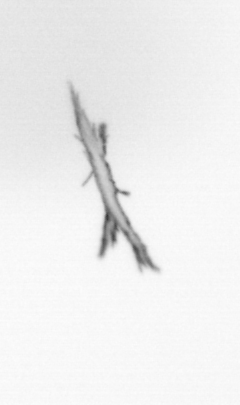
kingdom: Bacteria
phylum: Cyanobacteria
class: Cyanobacteriia
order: Cyanobacteriales
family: Microcoleaceae
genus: Trichodesmium
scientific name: Trichodesmium
